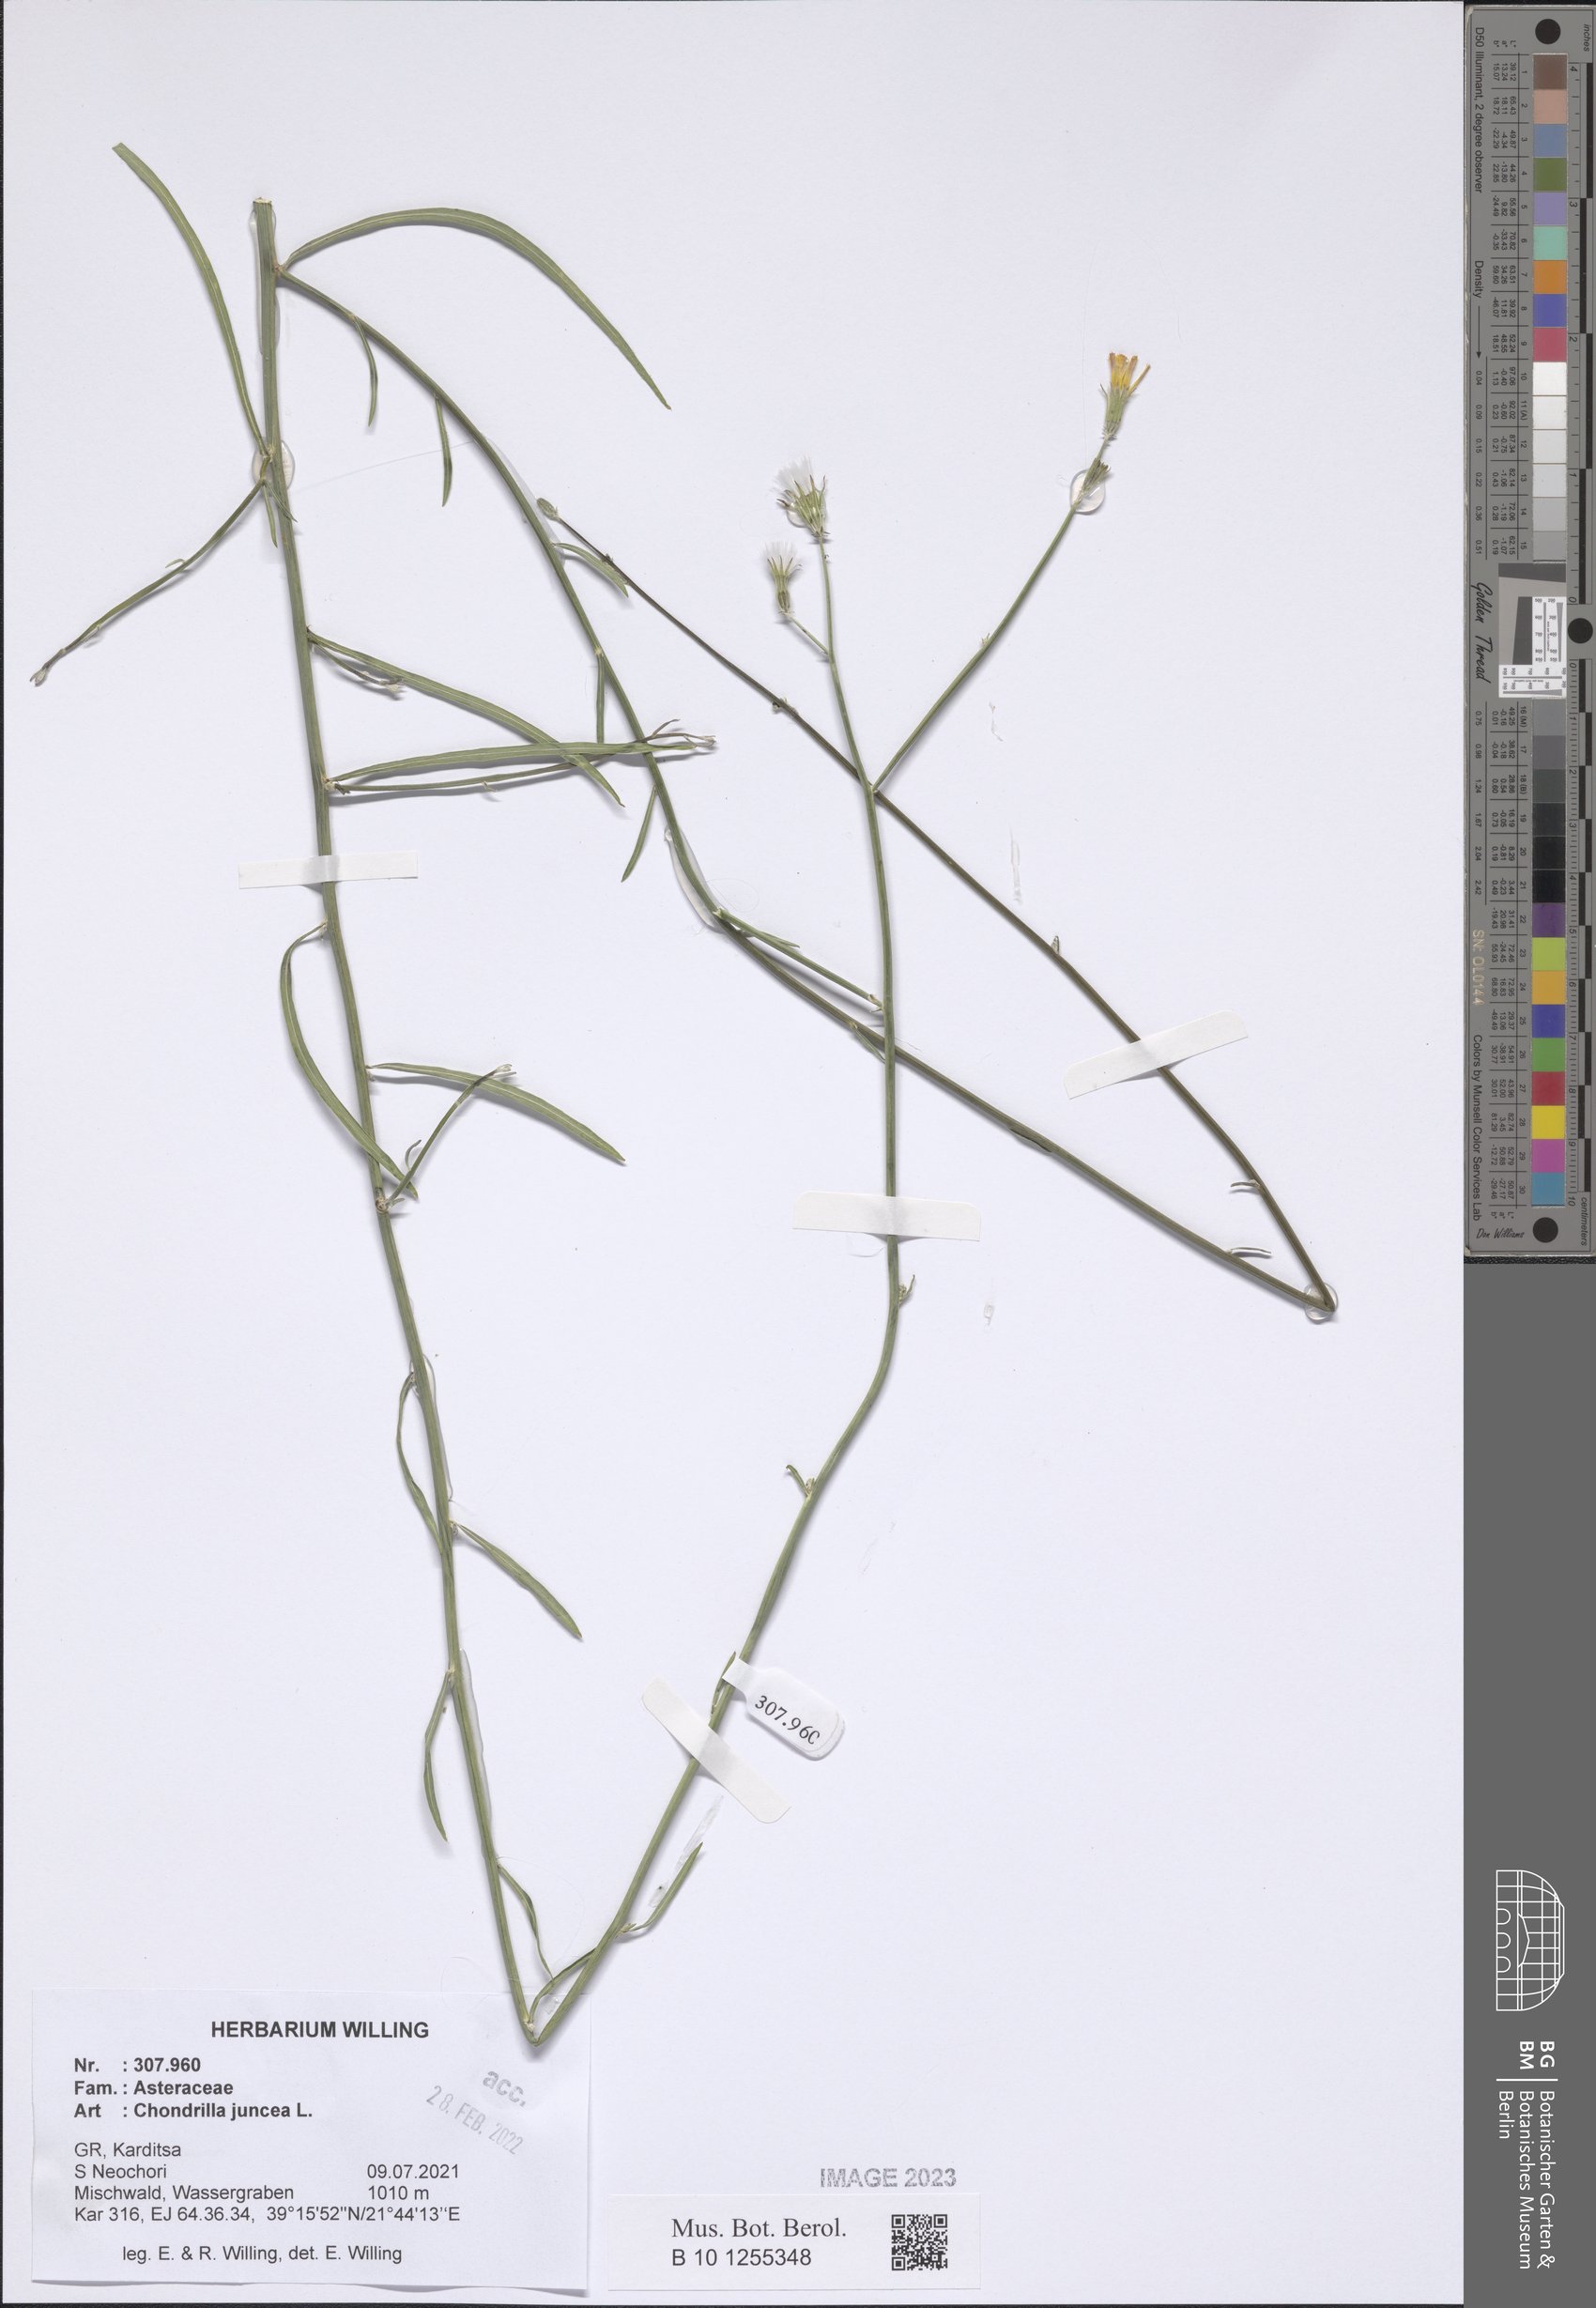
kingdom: Plantae
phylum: Tracheophyta
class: Magnoliopsida
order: Asterales
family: Asteraceae
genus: Chondrilla
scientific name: Chondrilla juncea
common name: Skeleton weed
